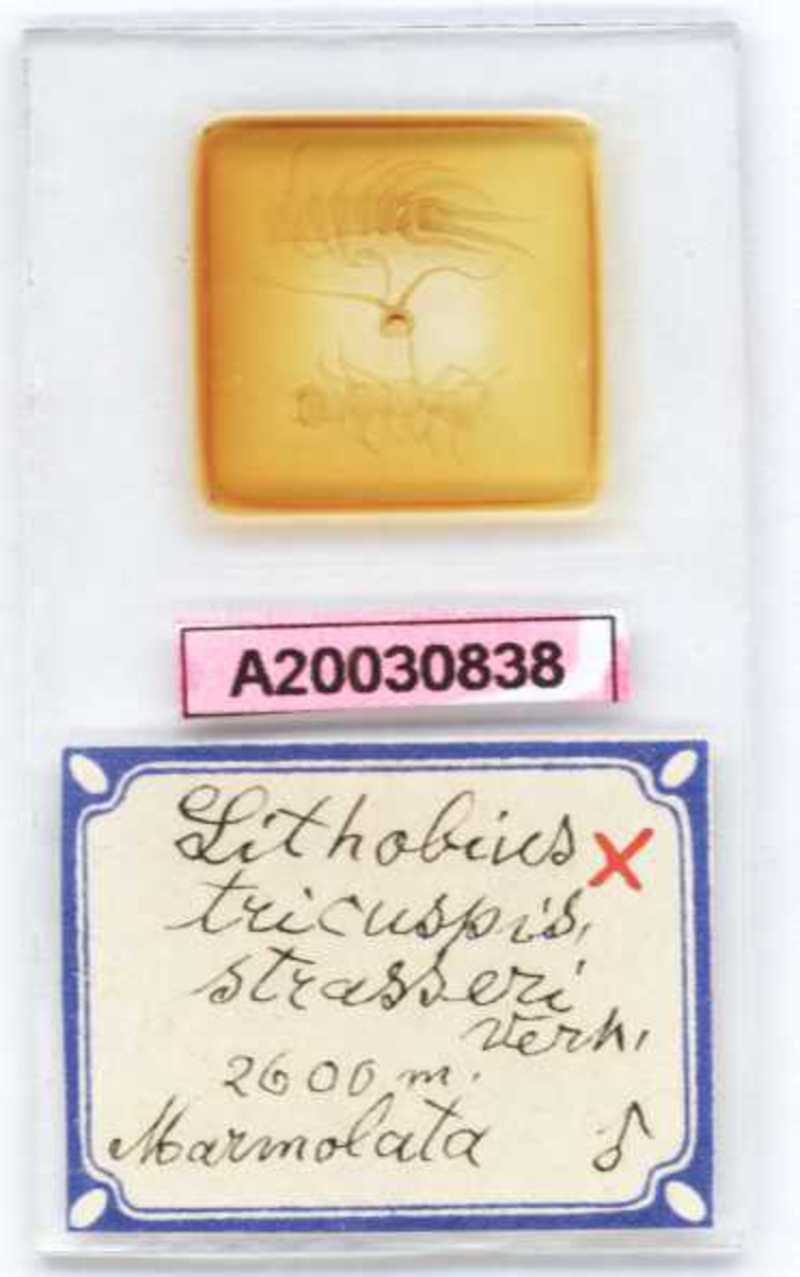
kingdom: Animalia
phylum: Arthropoda
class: Chilopoda
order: Lithobiomorpha
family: Lithobiidae
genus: Lithobius
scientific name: Lithobius tricuspis
